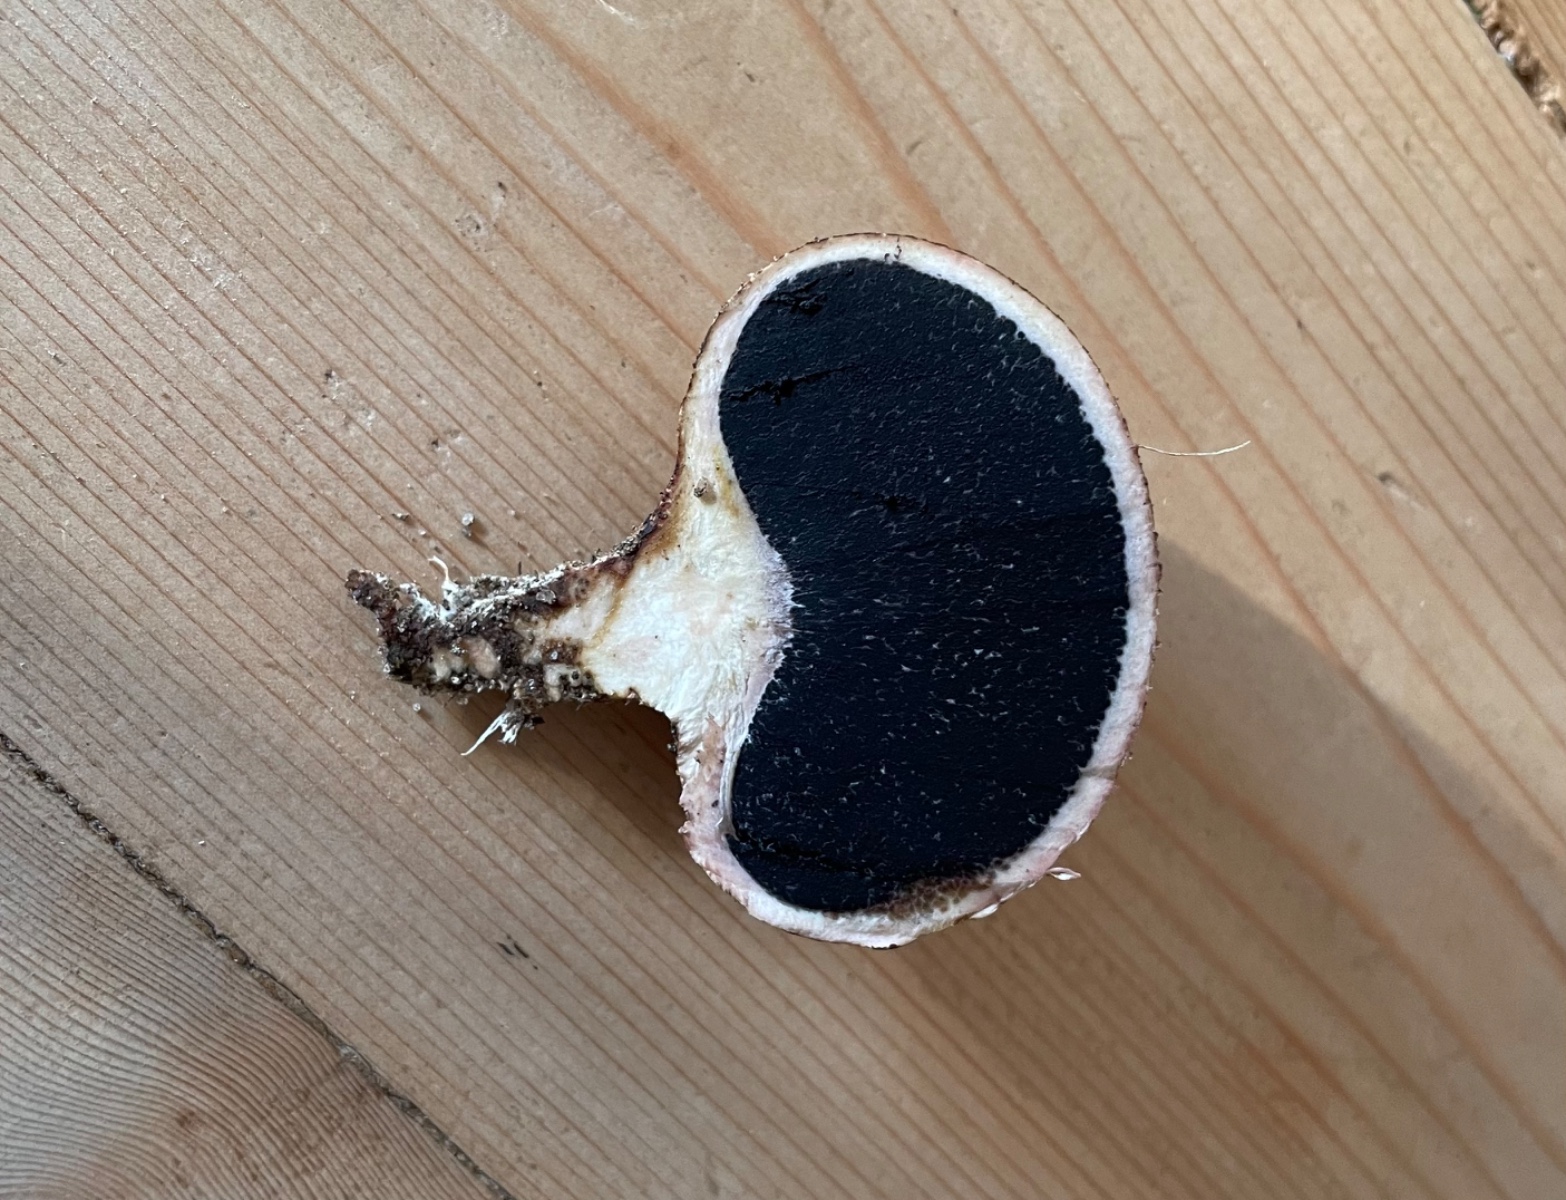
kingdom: Fungi
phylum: Basidiomycota
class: Agaricomycetes
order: Boletales
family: Sclerodermataceae
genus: Scleroderma
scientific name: Scleroderma verrucosum
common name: stilket bruskbold
